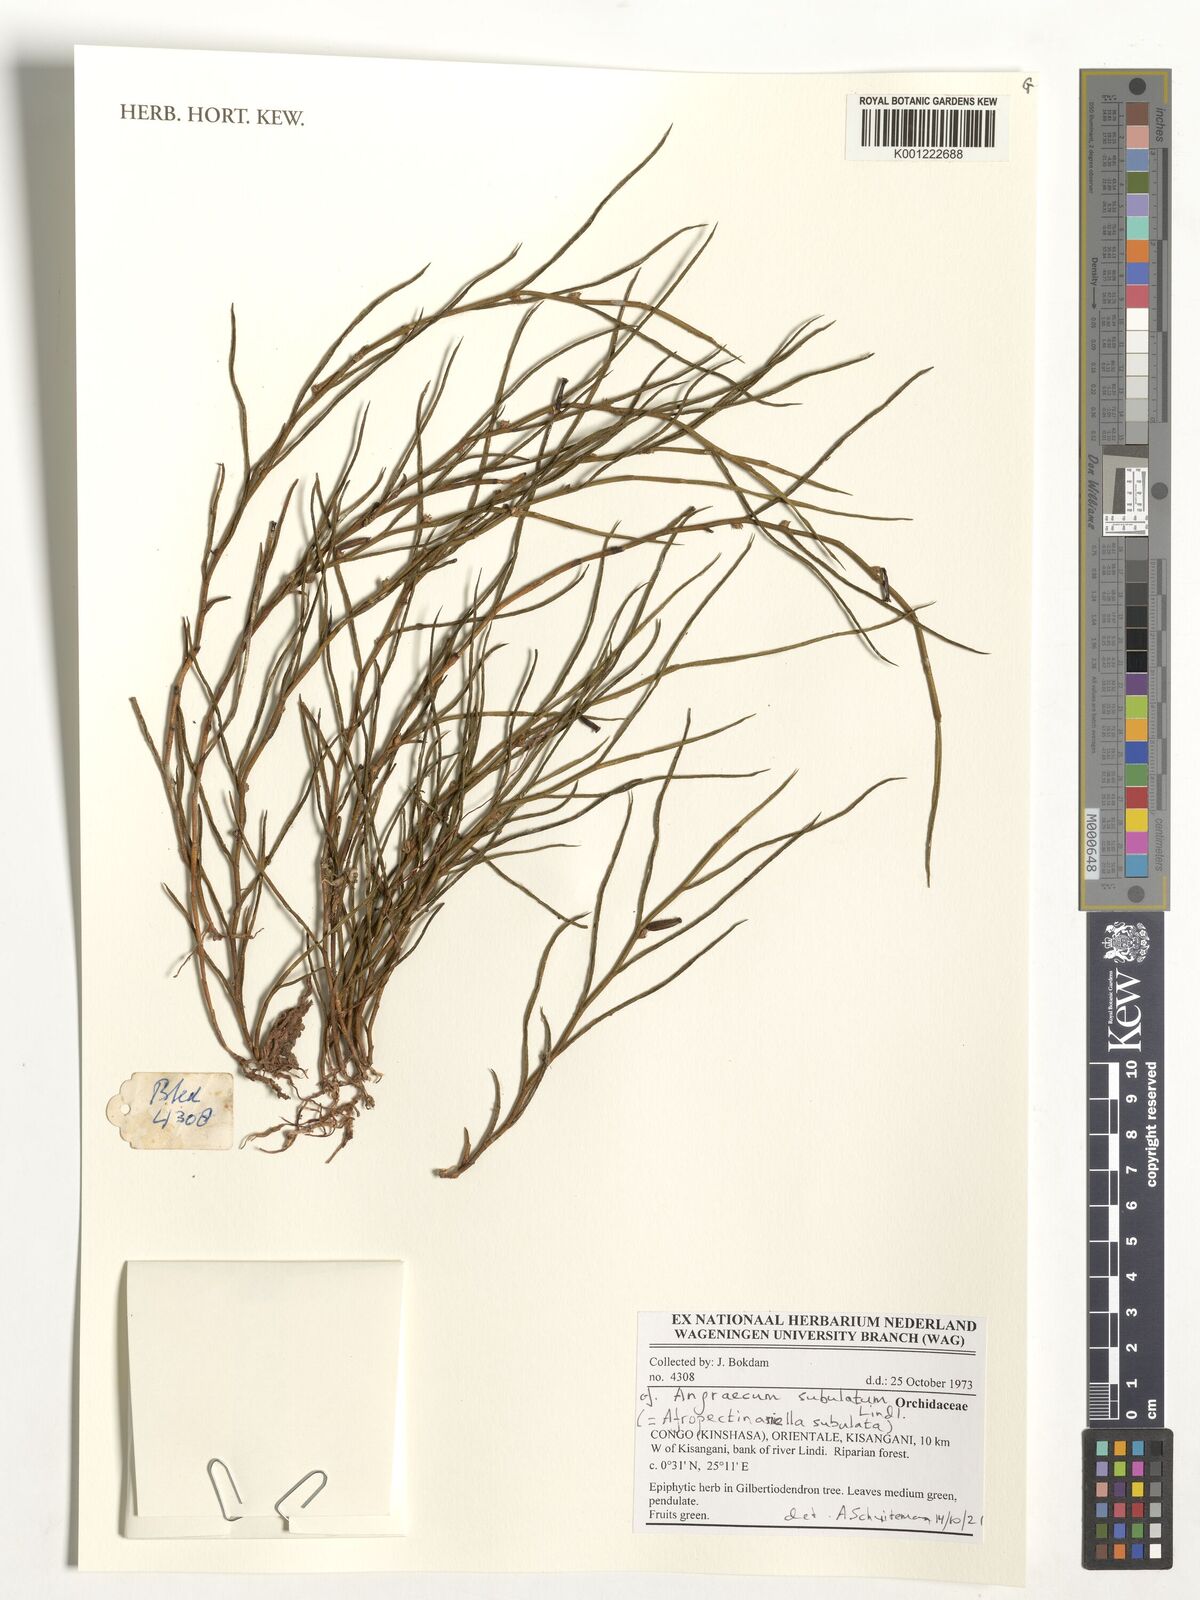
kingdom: Plantae
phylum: Tracheophyta
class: Liliopsida
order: Asparagales
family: Orchidaceae
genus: Afropectinariella
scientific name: Afropectinariella subulata
